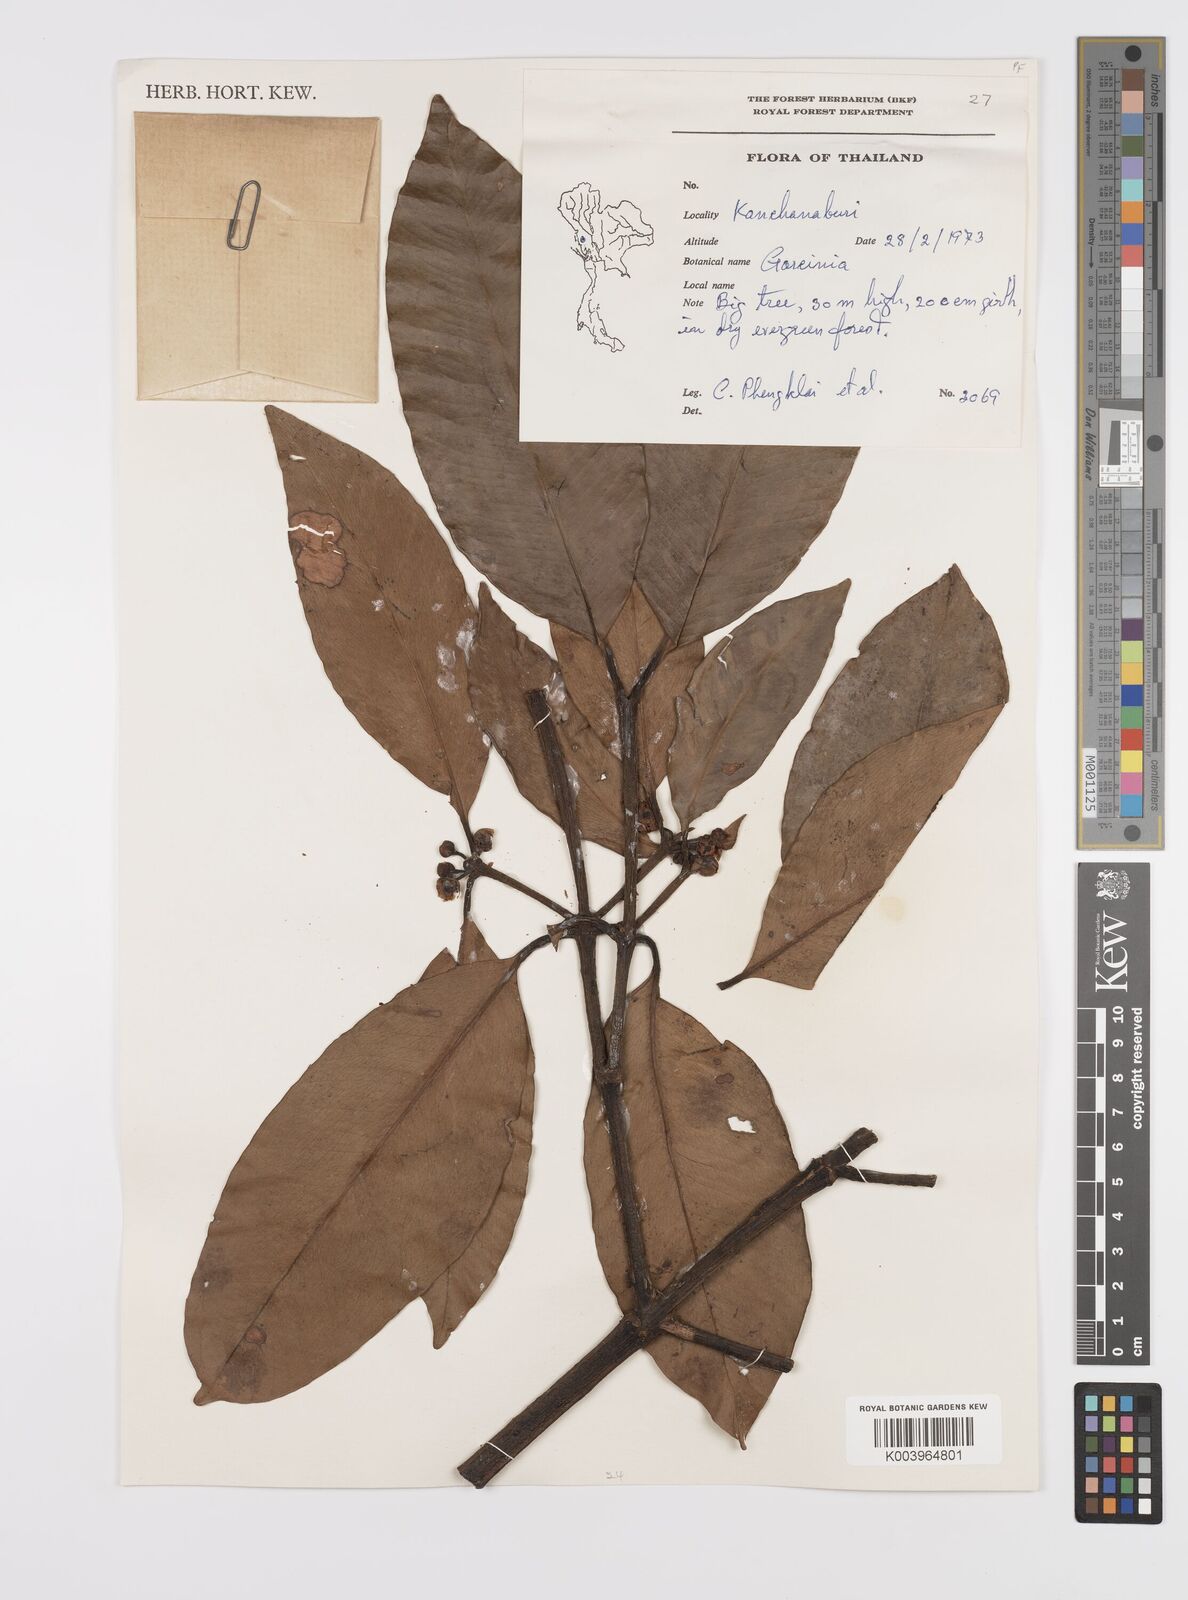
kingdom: Plantae
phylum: Tracheophyta
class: Magnoliopsida
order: Malpighiales
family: Clusiaceae
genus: Garcinia
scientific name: Garcinia
